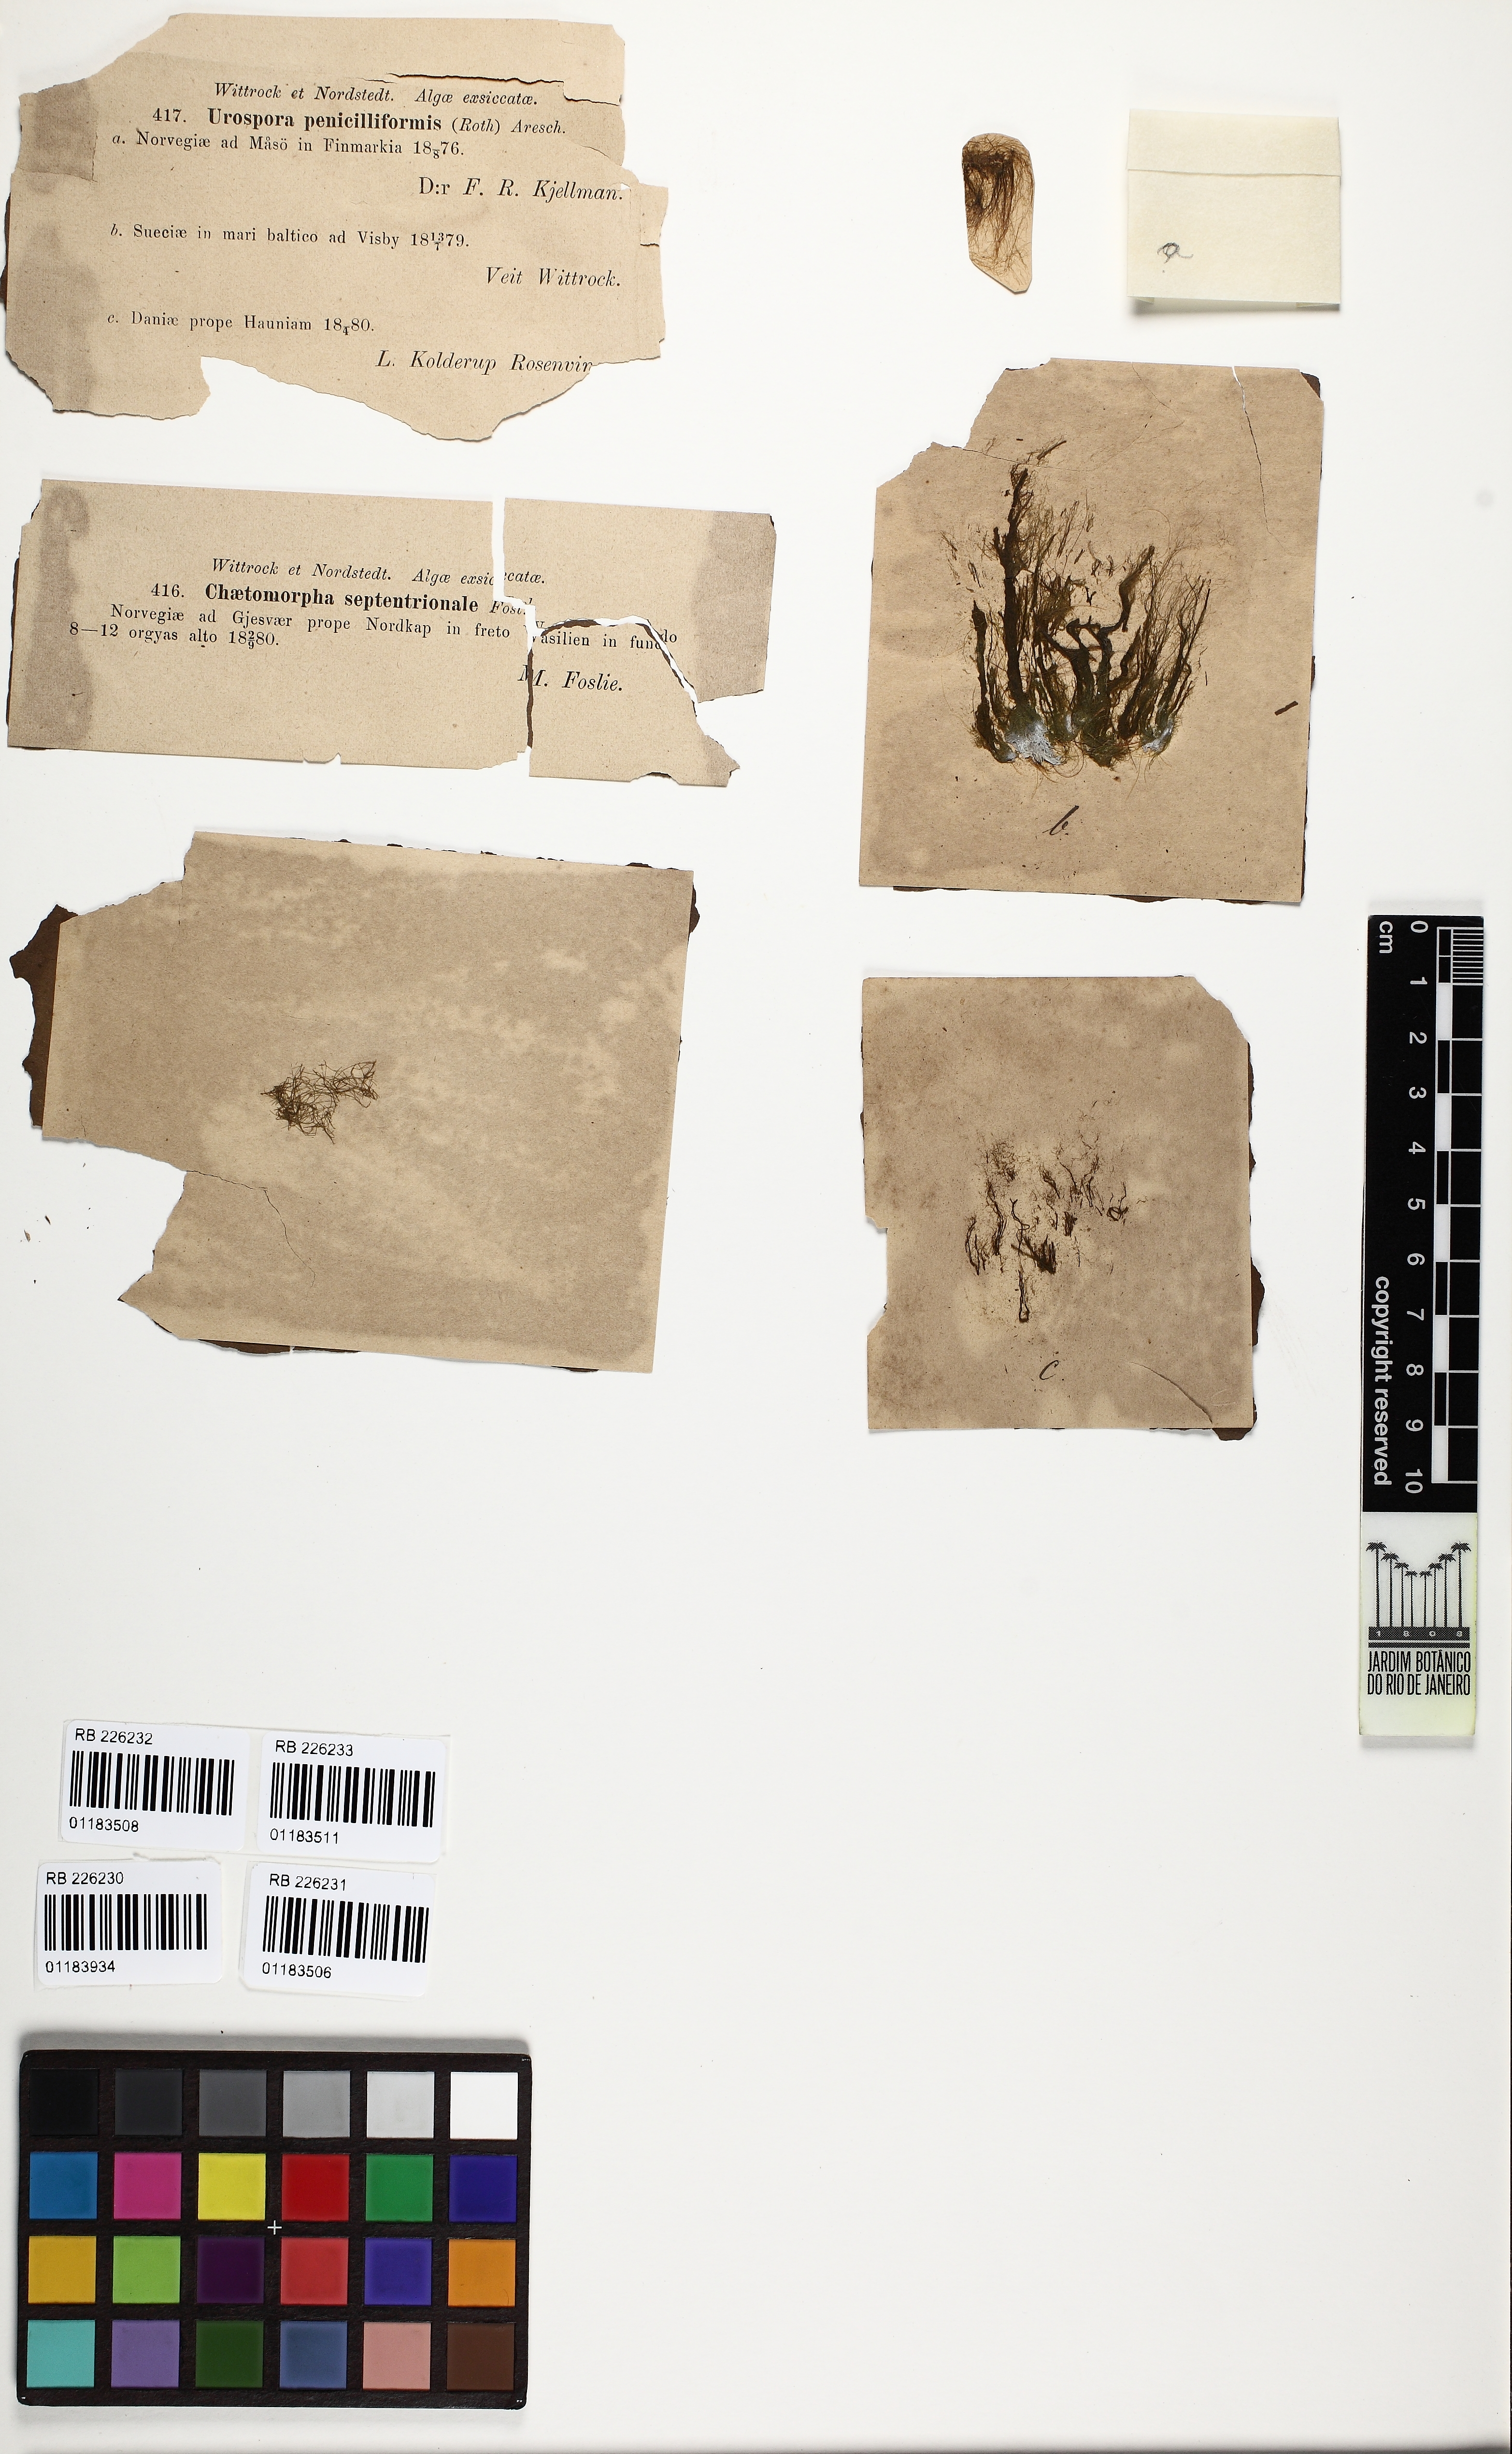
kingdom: Plantae
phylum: Chlorophyta
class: Ulvophyceae
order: Ulotrichales
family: Ulotrichaceae
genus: Urospora
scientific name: Urospora penicilliformis
